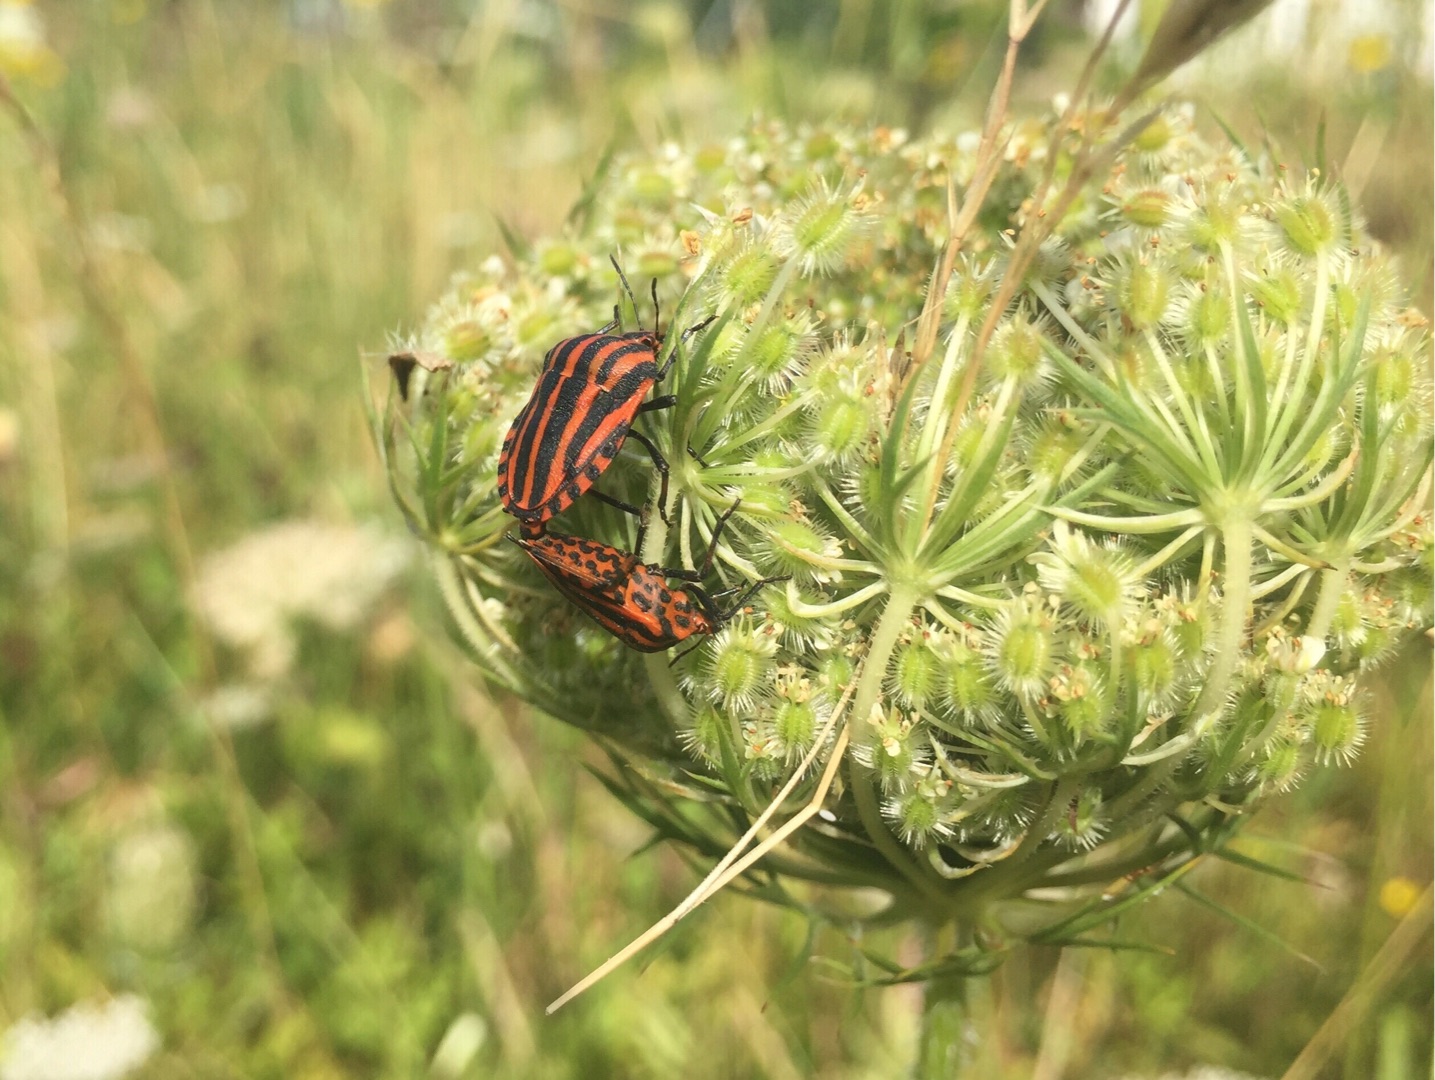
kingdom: Animalia
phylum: Arthropoda
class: Insecta
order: Hemiptera
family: Pentatomidae
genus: Graphosoma
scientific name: Graphosoma italicum
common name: Stribetæge
